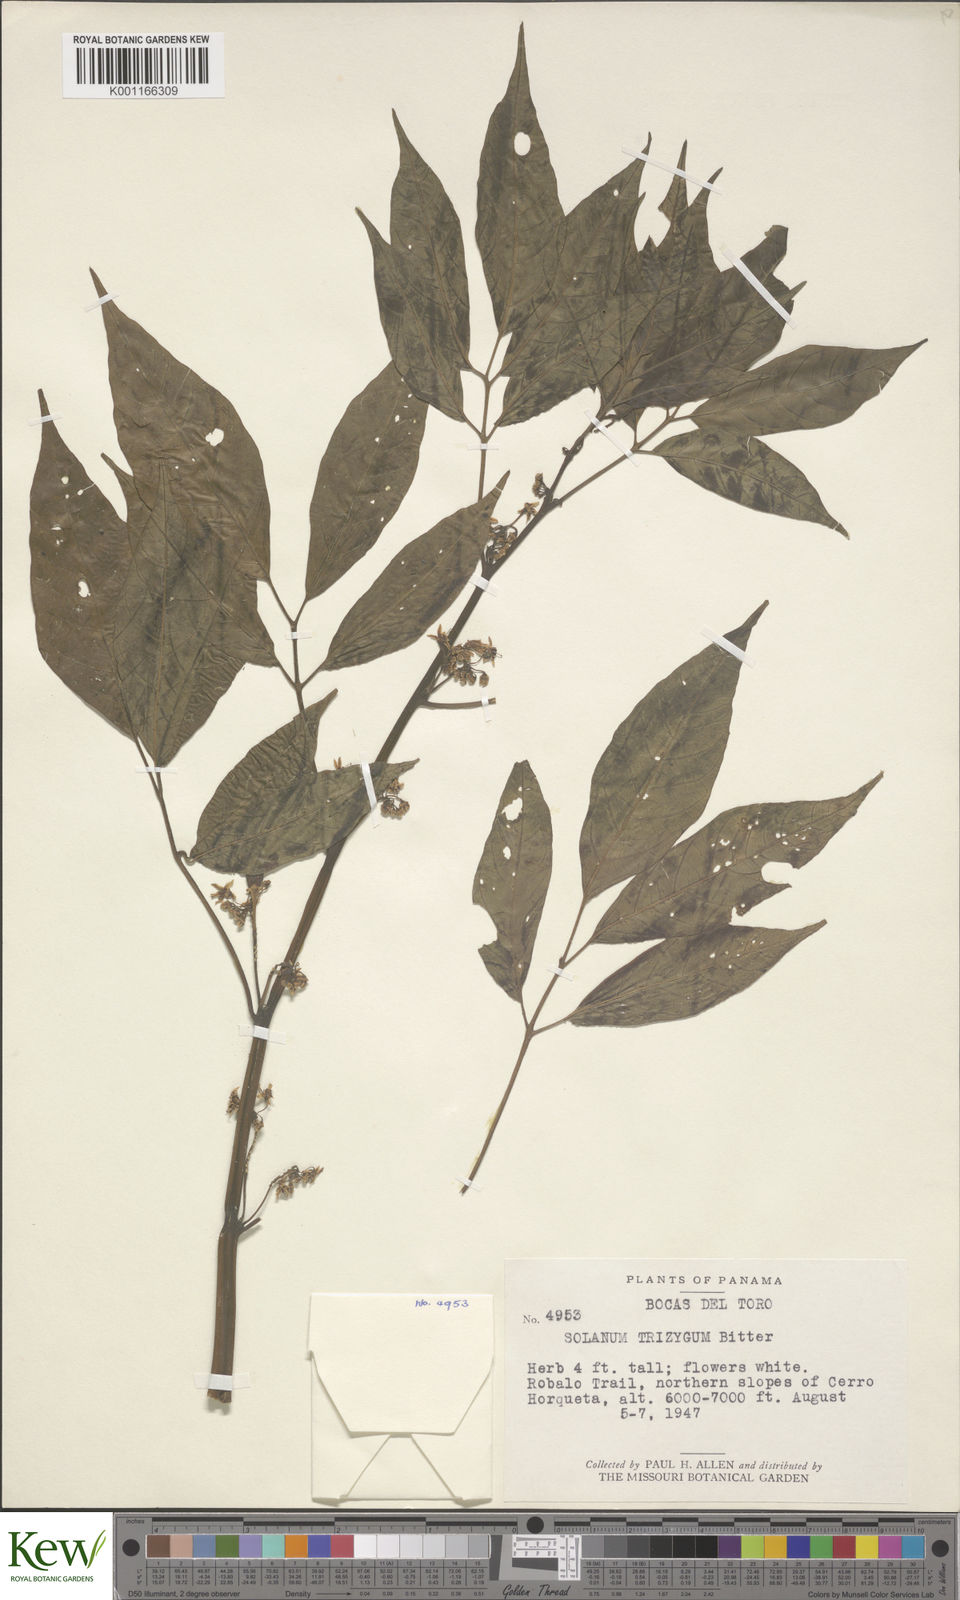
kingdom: Plantae
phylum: Tracheophyta
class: Magnoliopsida
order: Solanales
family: Solanaceae
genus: Solanum
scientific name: Solanum trizygum
